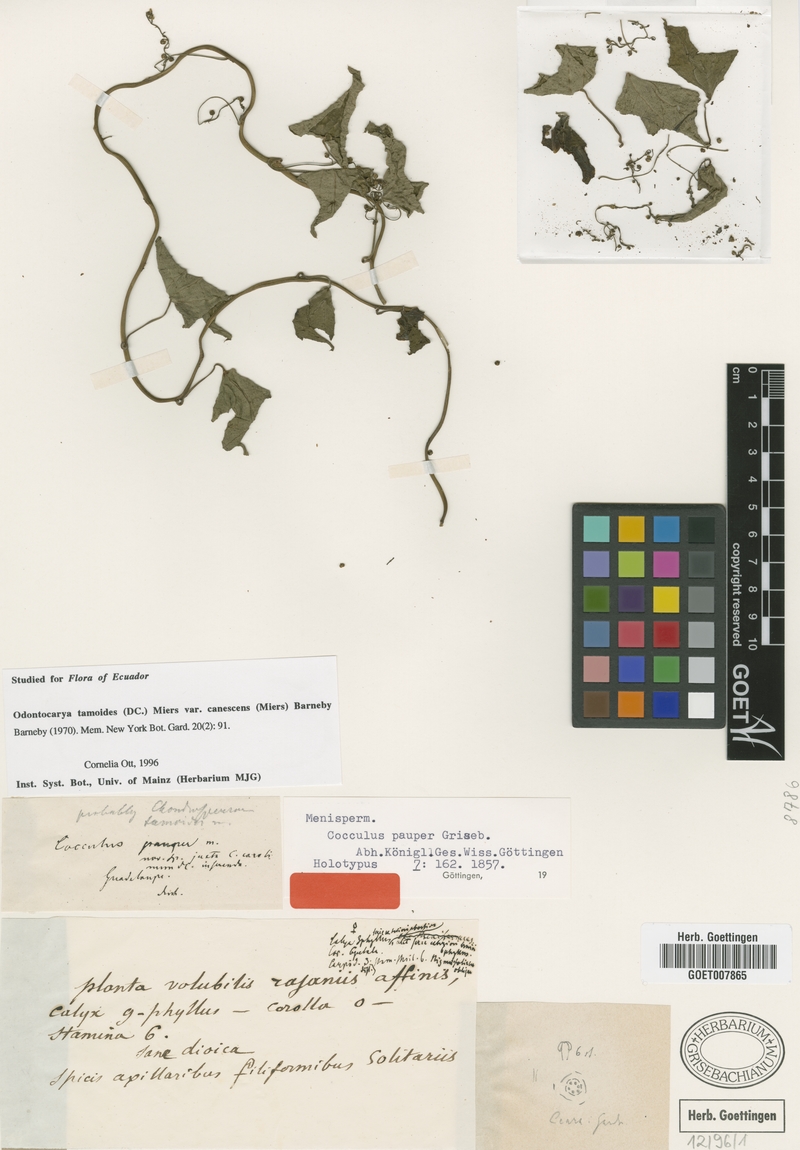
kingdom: Plantae
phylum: Tracheophyta
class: Magnoliopsida
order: Ranunculales
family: Menispermaceae
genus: Odontocarya
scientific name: Odontocarya tamoides
